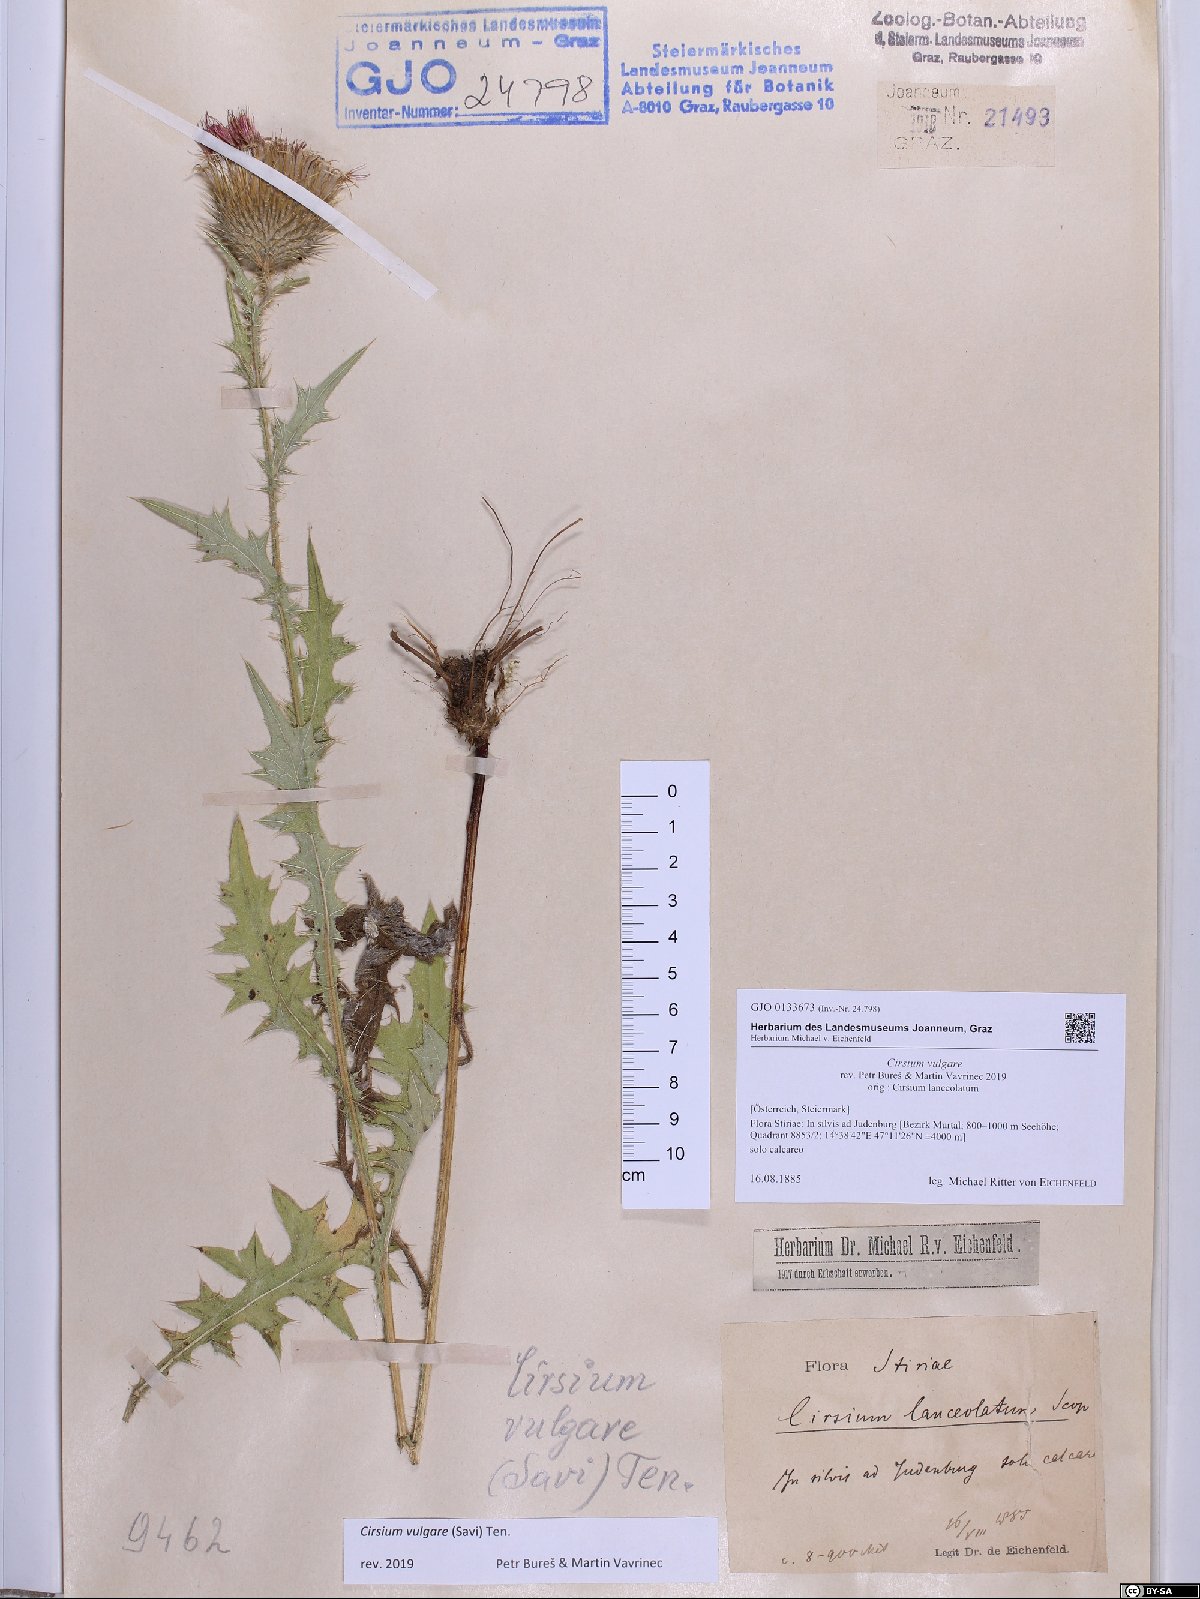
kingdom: Plantae
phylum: Tracheophyta
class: Magnoliopsida
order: Asterales
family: Asteraceae
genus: Cirsium
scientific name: Cirsium vulgare
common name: Bull thistle
